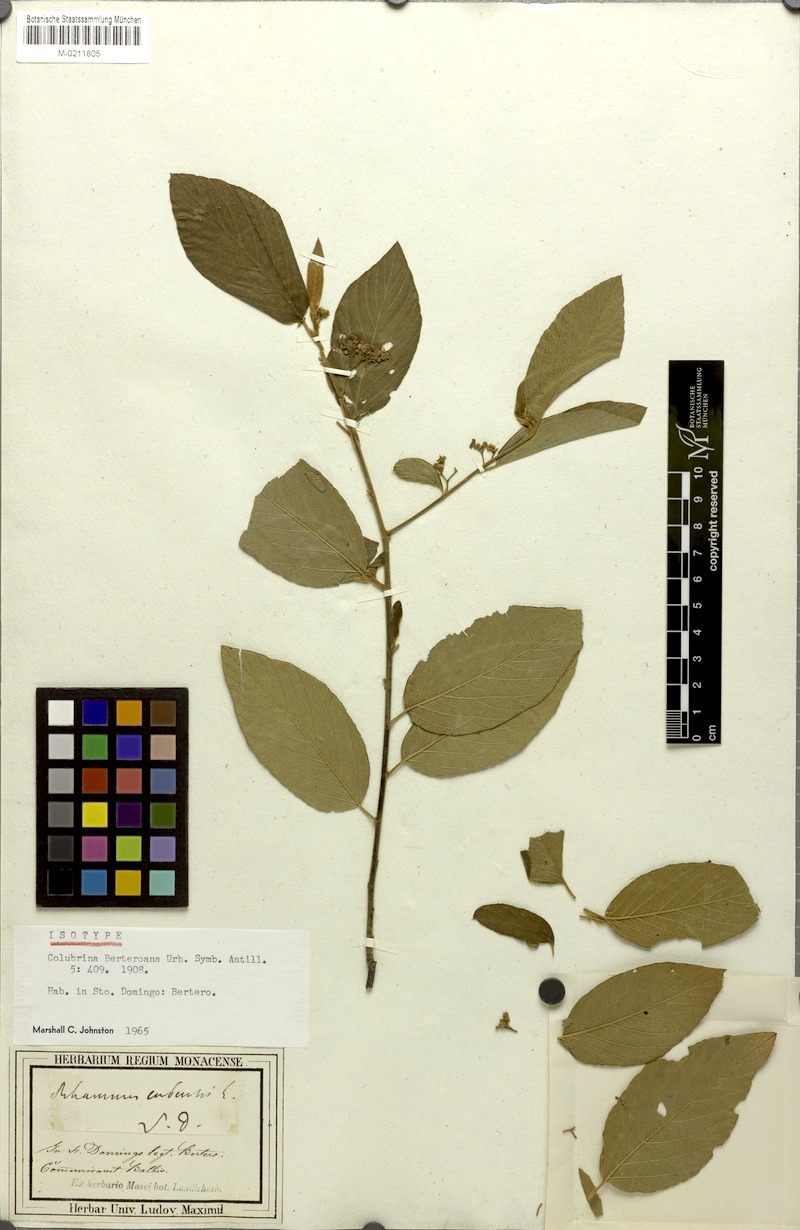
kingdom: Plantae
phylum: Tracheophyta
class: Magnoliopsida
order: Rosales
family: Rhamnaceae
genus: Colubrina
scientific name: Colubrina berteroana
